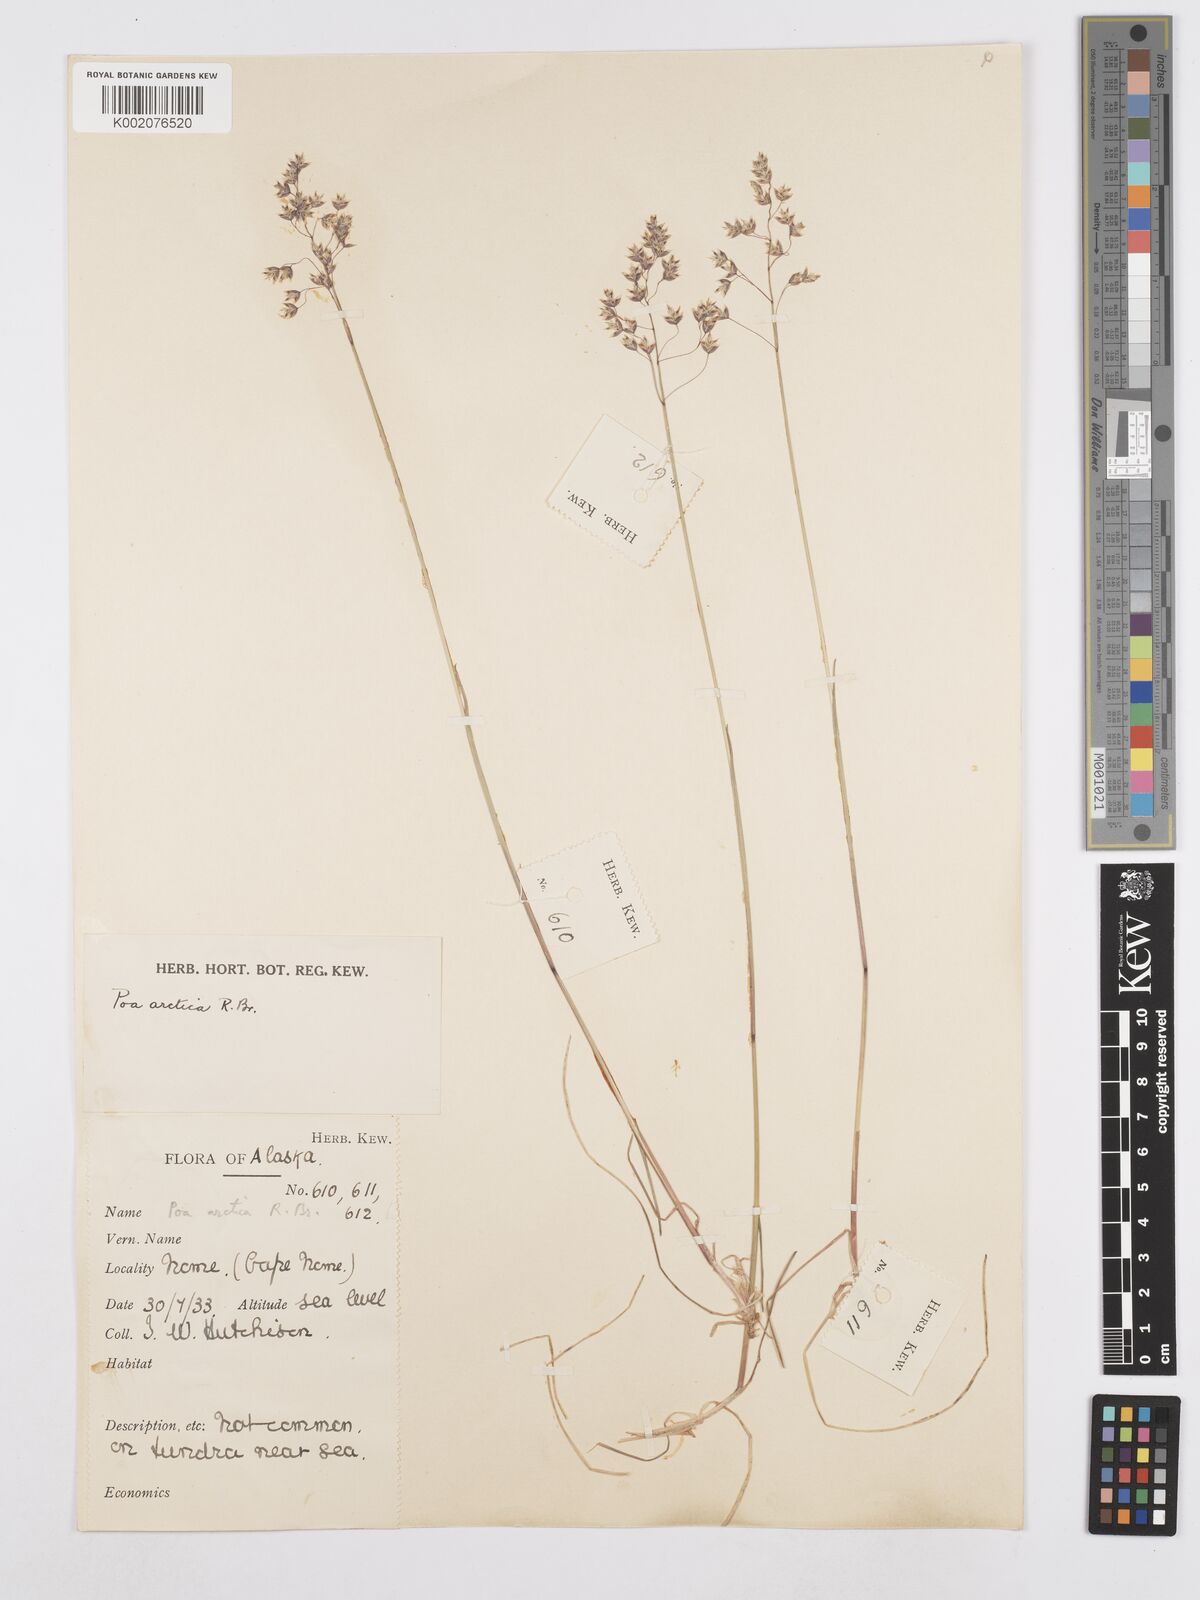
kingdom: Plantae
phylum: Tracheophyta
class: Liliopsida
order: Poales
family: Poaceae
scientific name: Poaceae
